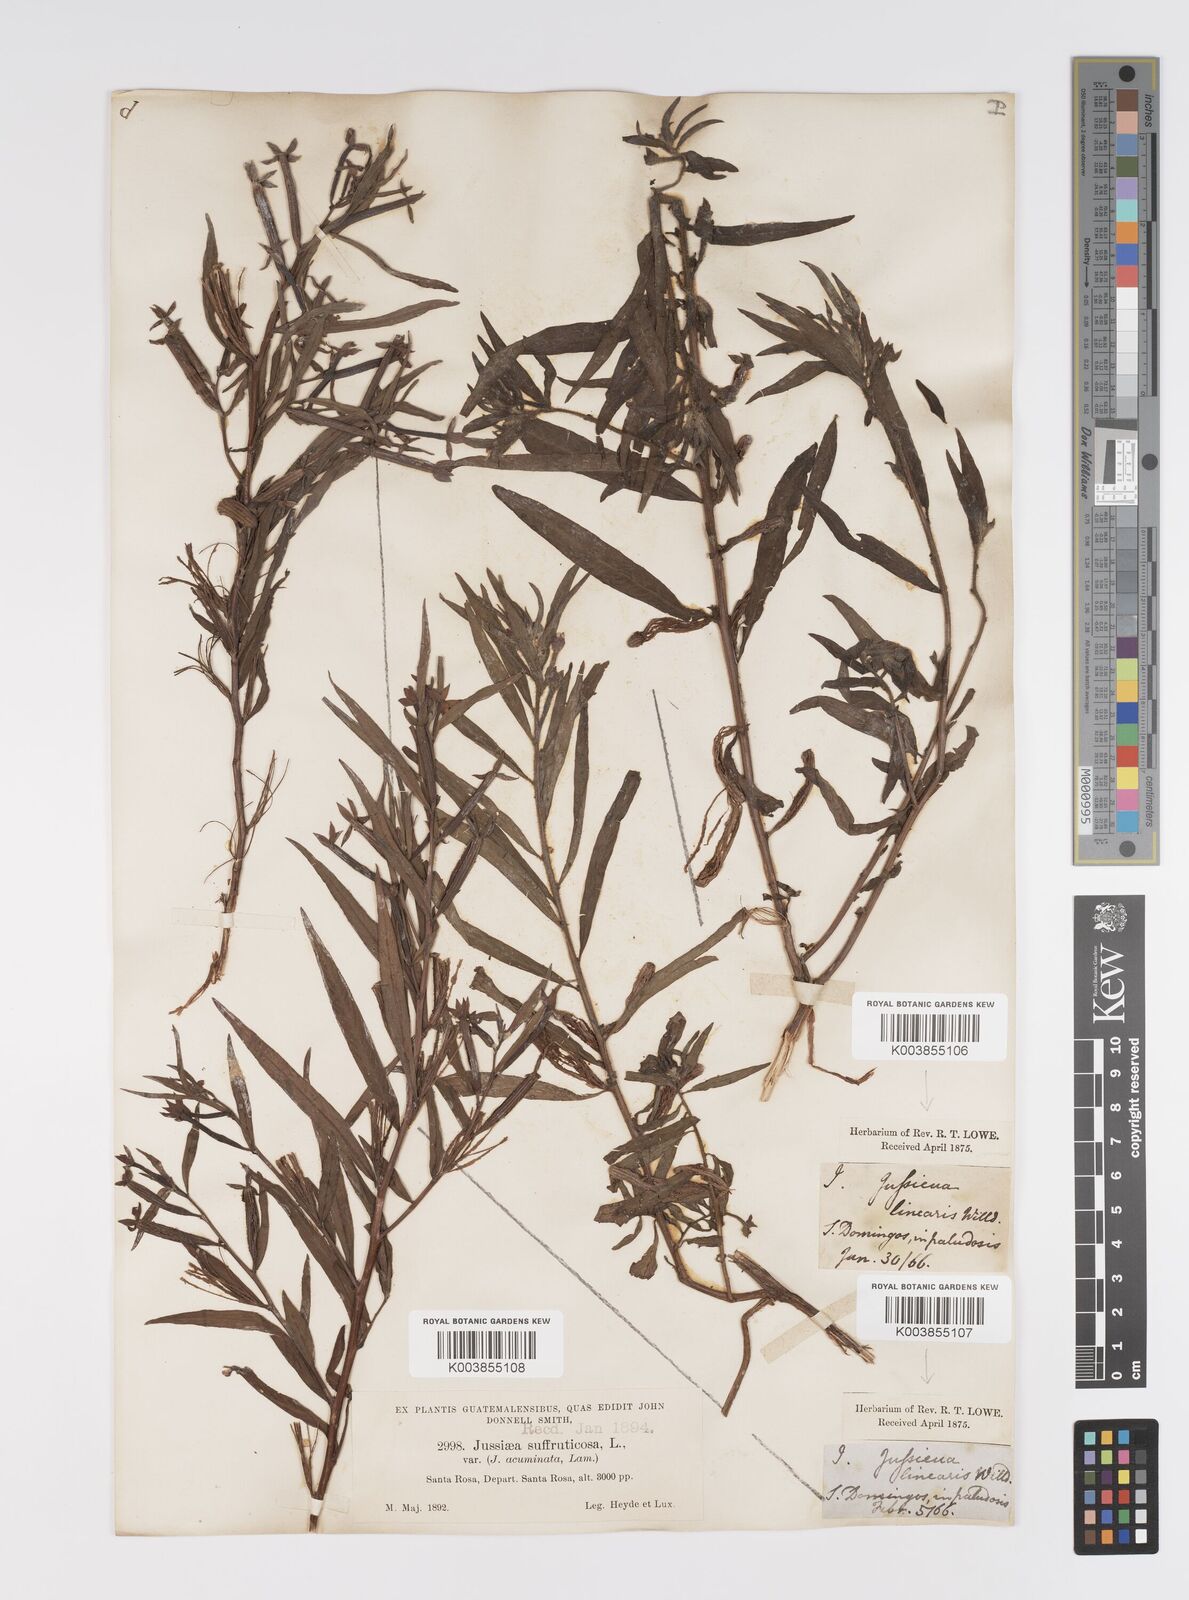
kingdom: Plantae
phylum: Tracheophyta
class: Magnoliopsida
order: Myrtales
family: Onagraceae
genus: Ludwigia
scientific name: Ludwigia octovalvis
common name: Water-primrose
